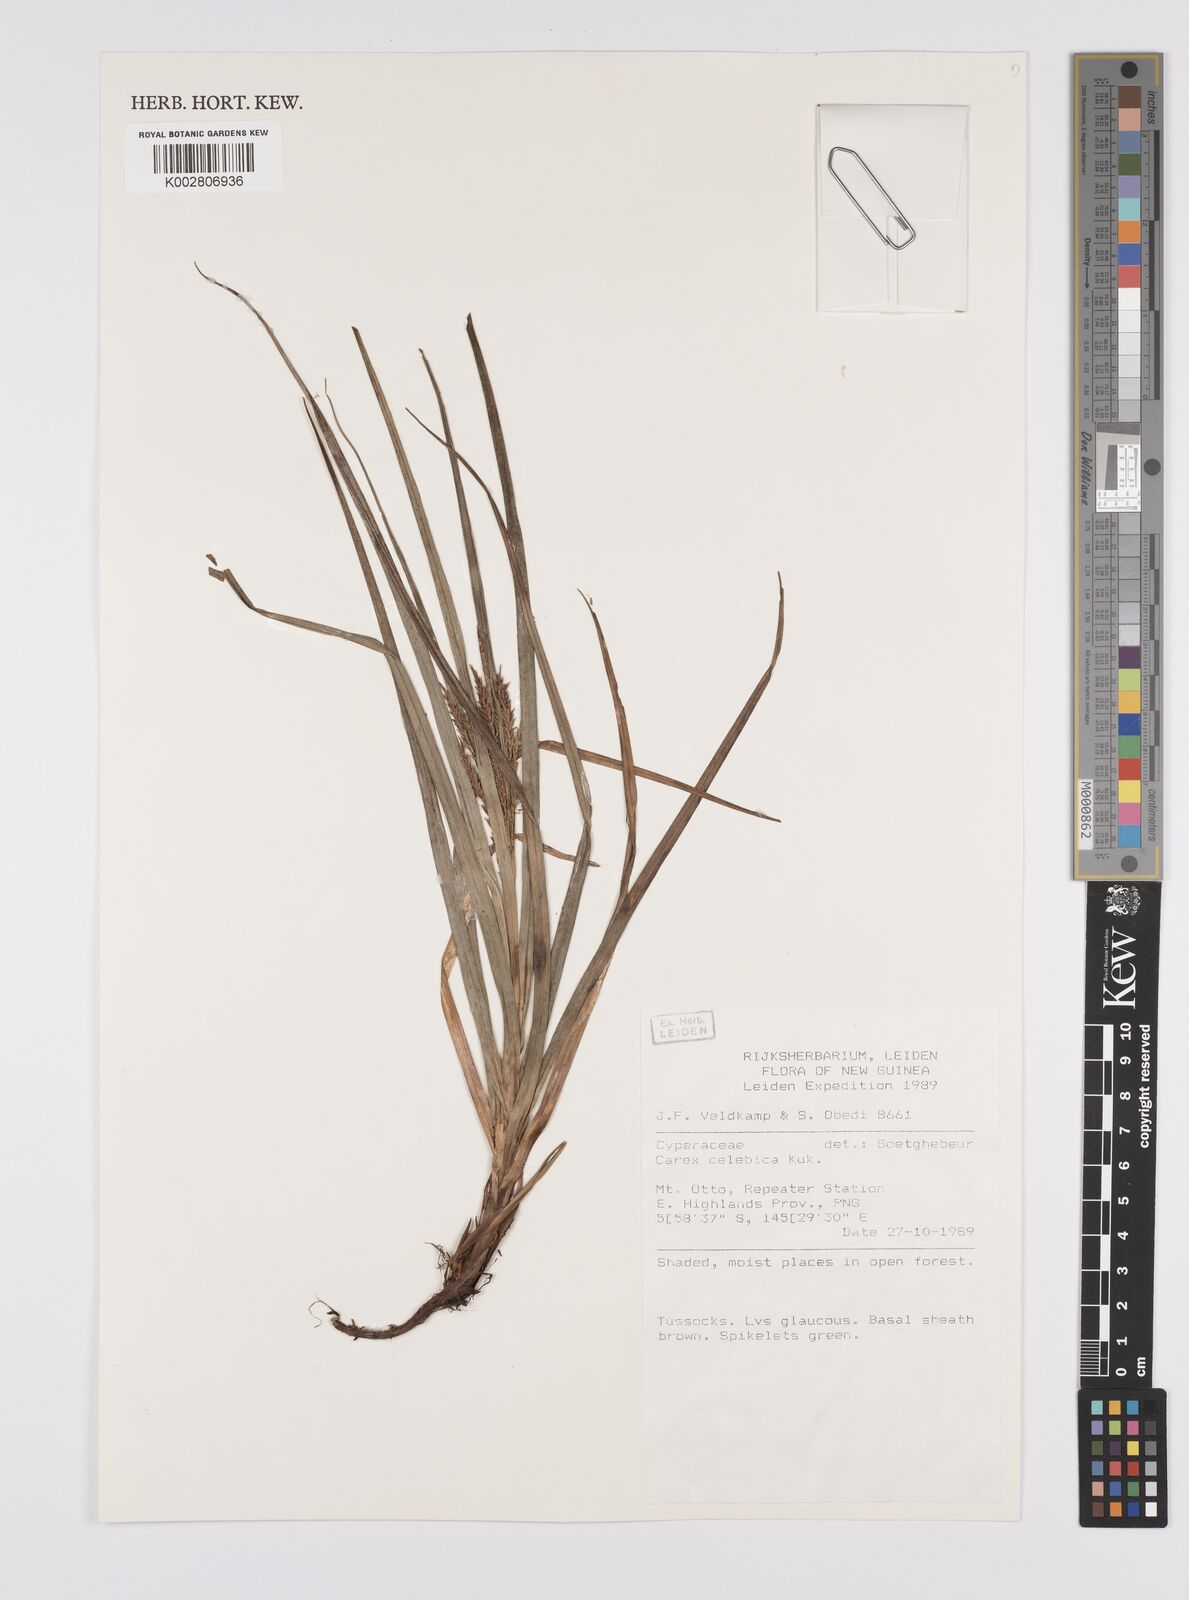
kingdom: Plantae
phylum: Tracheophyta
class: Liliopsida
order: Poales
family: Cyperaceae
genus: Carex
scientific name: Carex celebica
